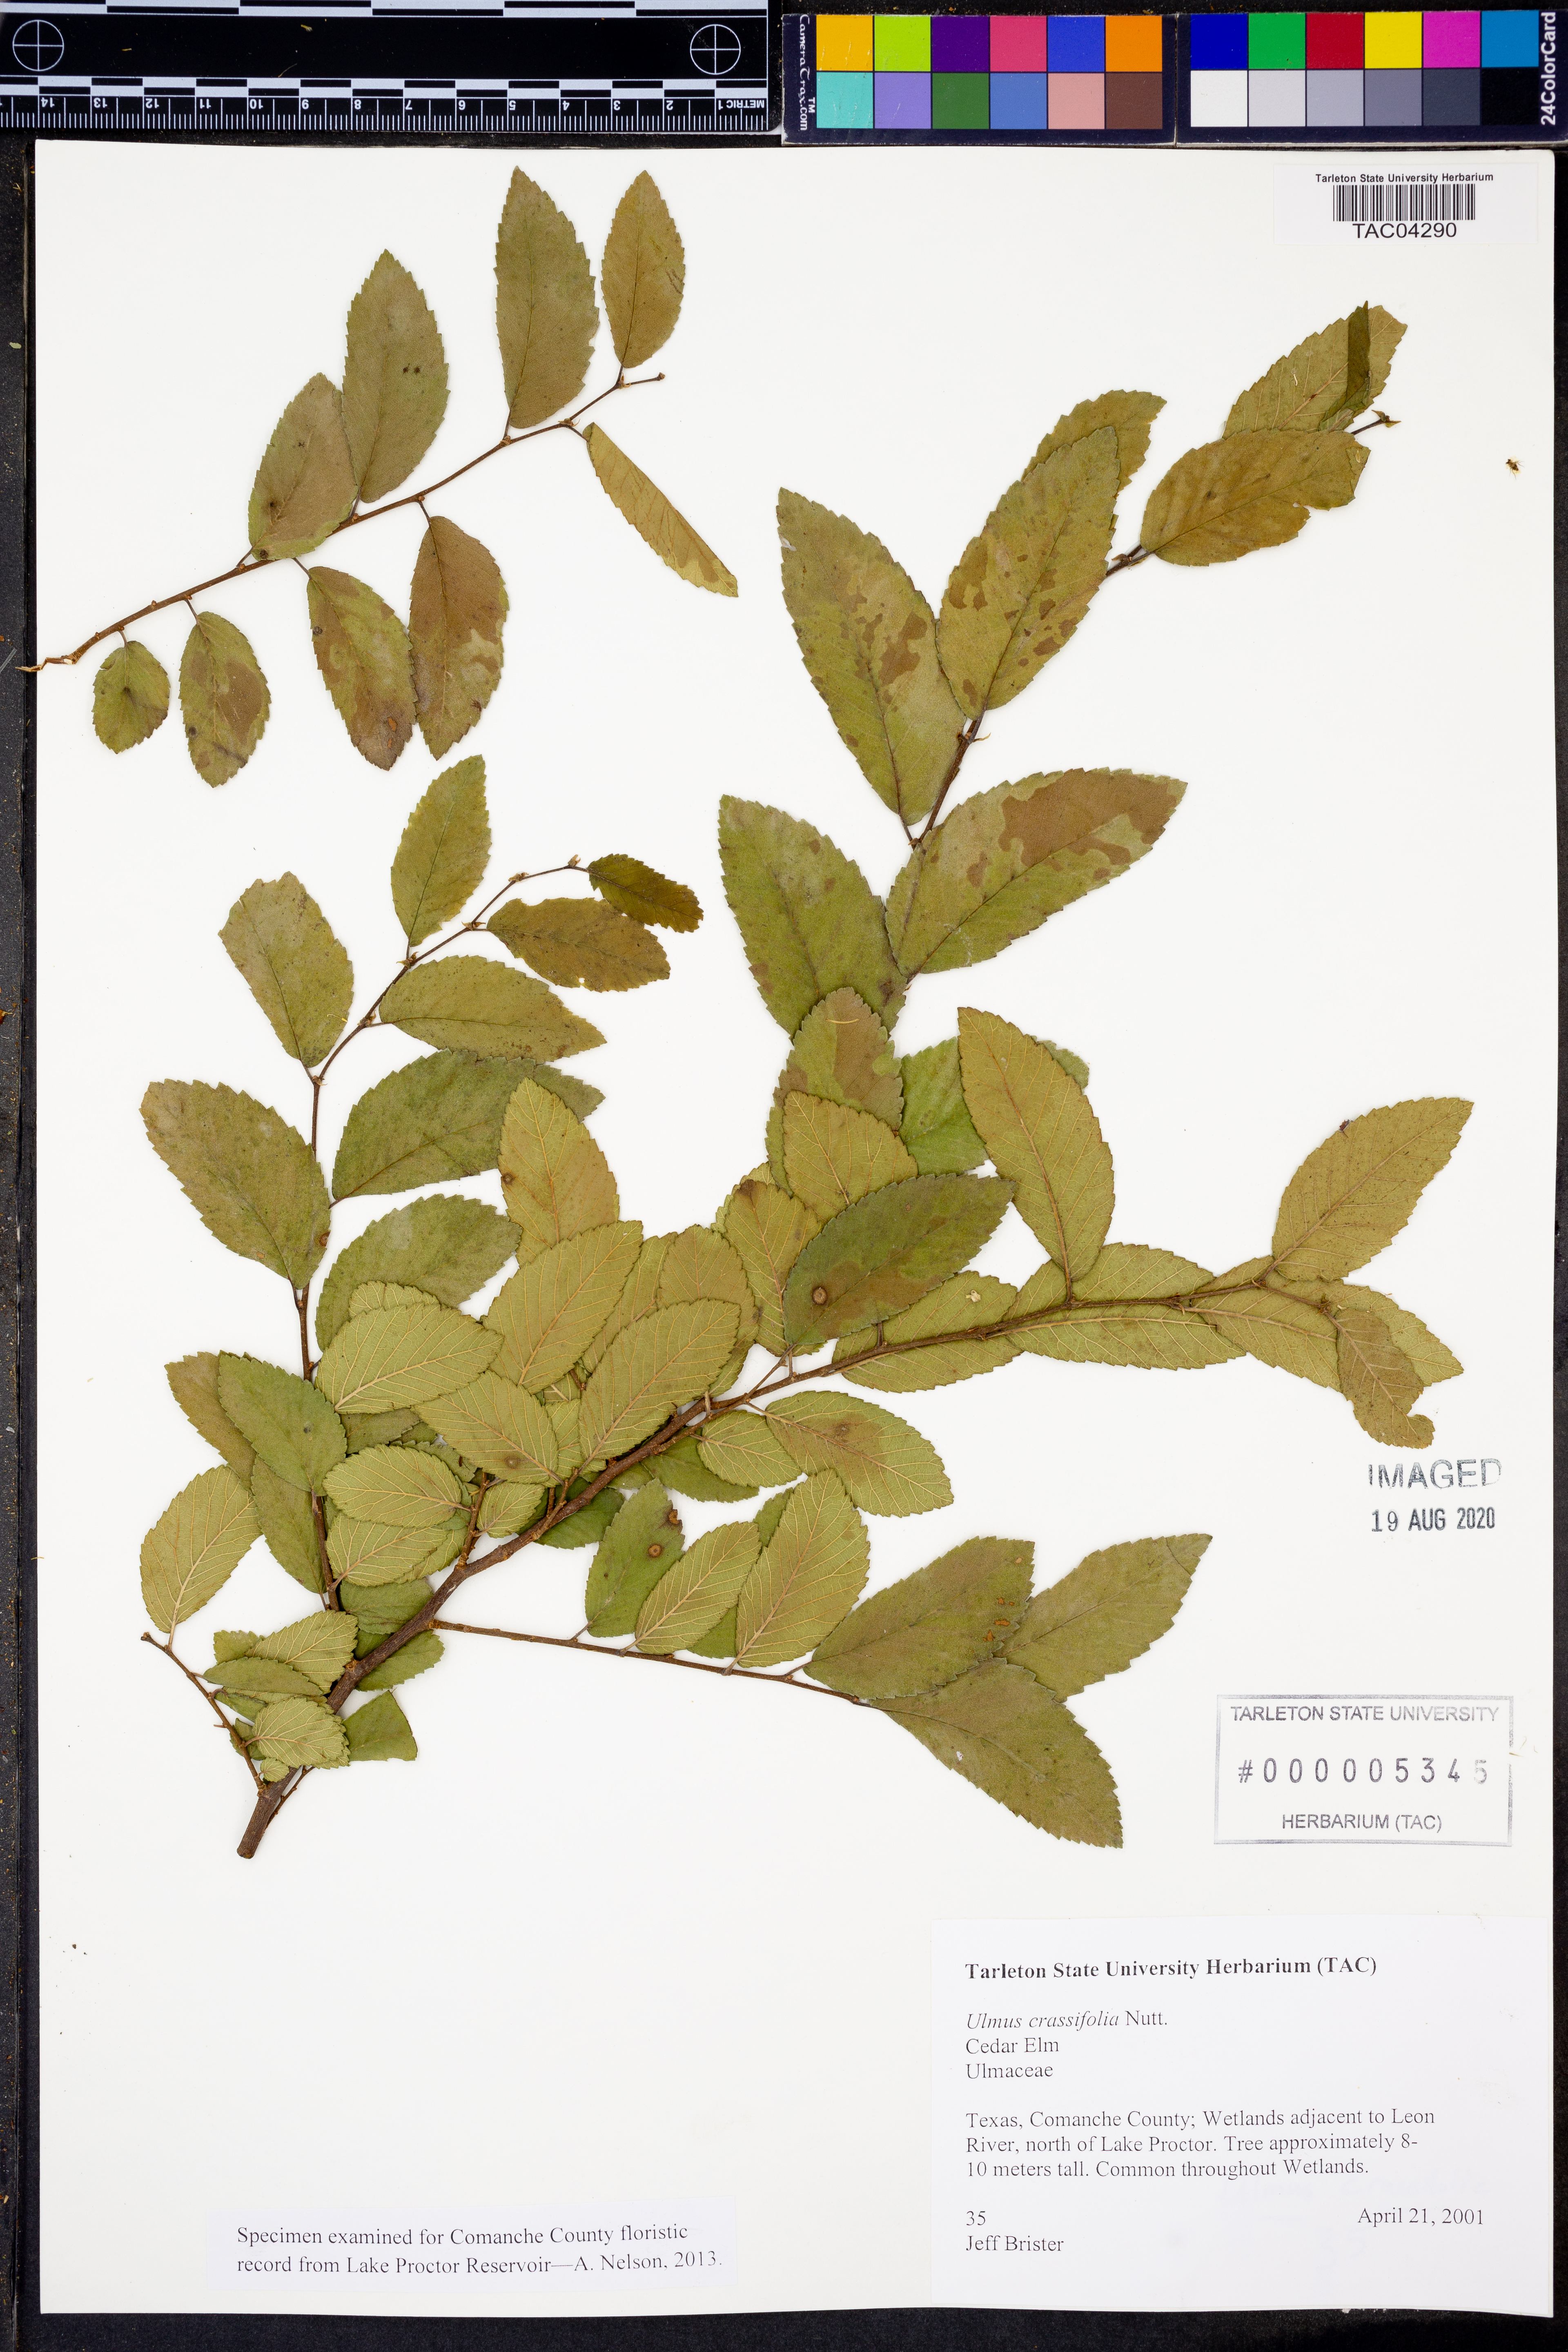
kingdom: Plantae
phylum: Tracheophyta
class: Magnoliopsida
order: Rosales
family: Ulmaceae
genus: Ulmus
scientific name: Ulmus crassifolia
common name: Basket elm
